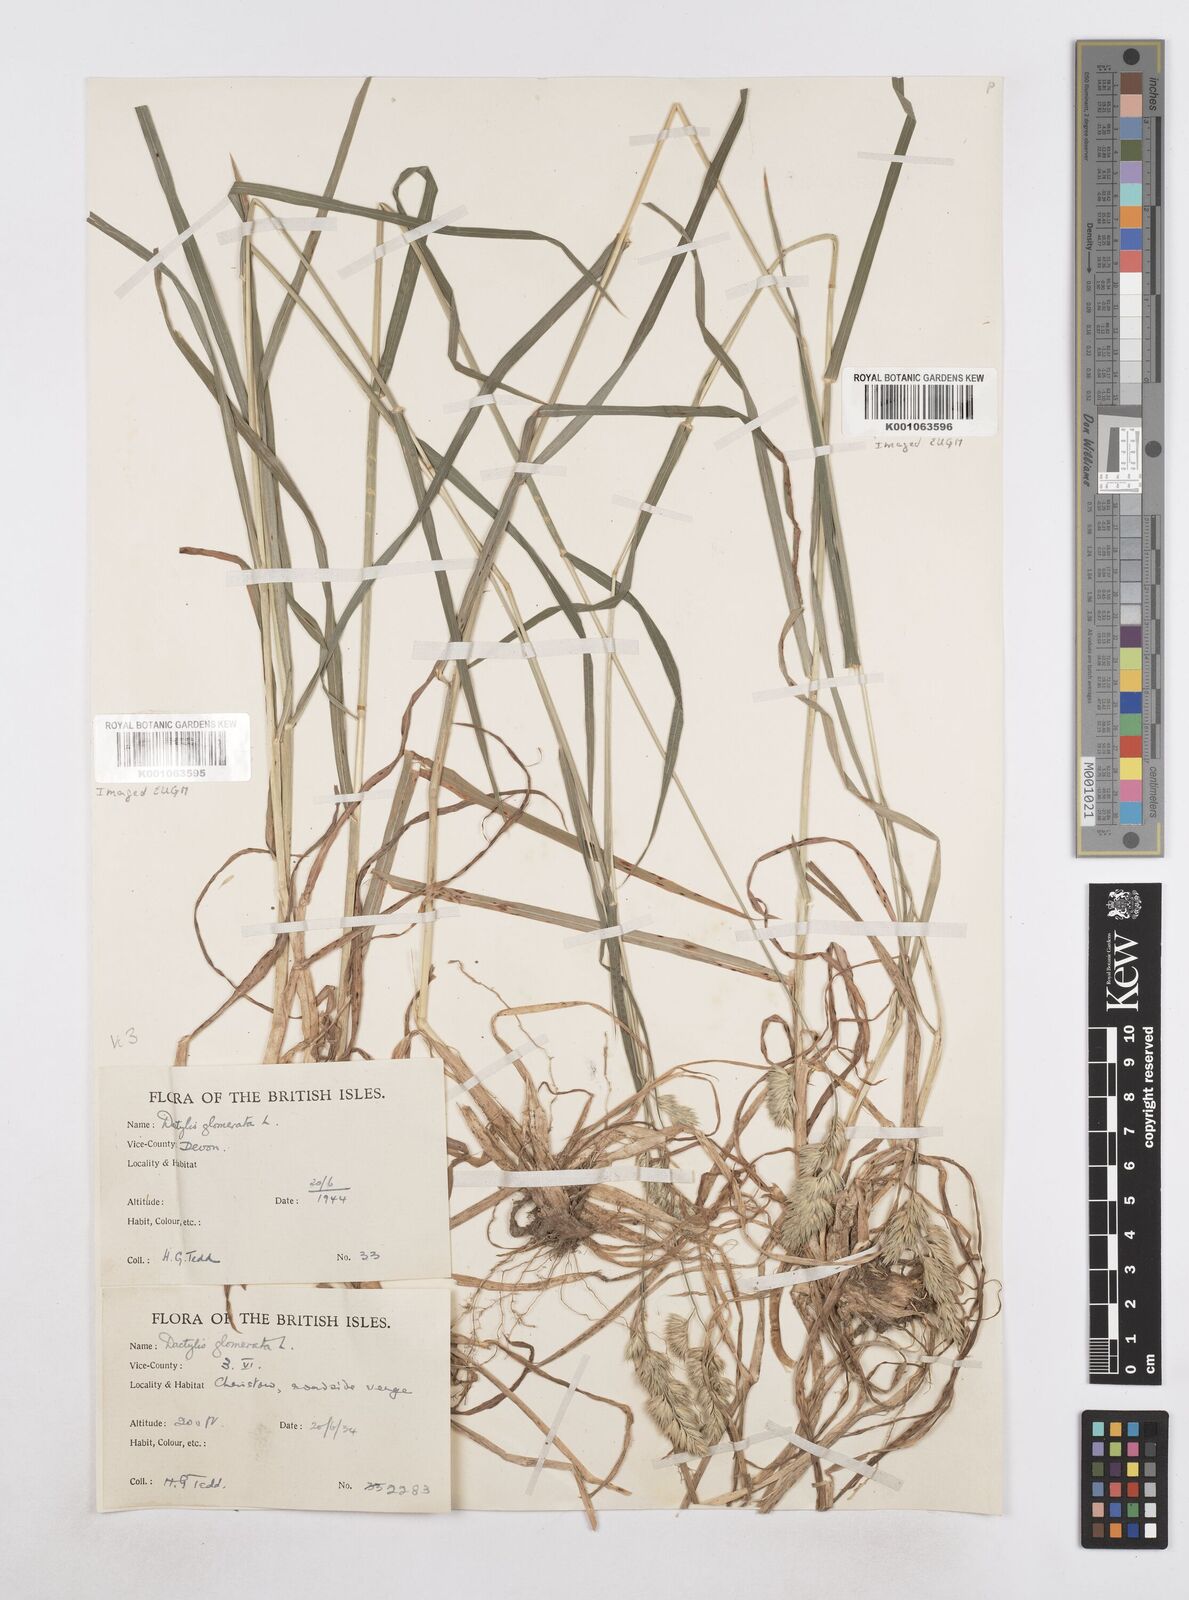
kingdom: Plantae
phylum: Tracheophyta
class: Liliopsida
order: Poales
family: Poaceae
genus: Dactylis
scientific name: Dactylis glomerata
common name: Orchardgrass
